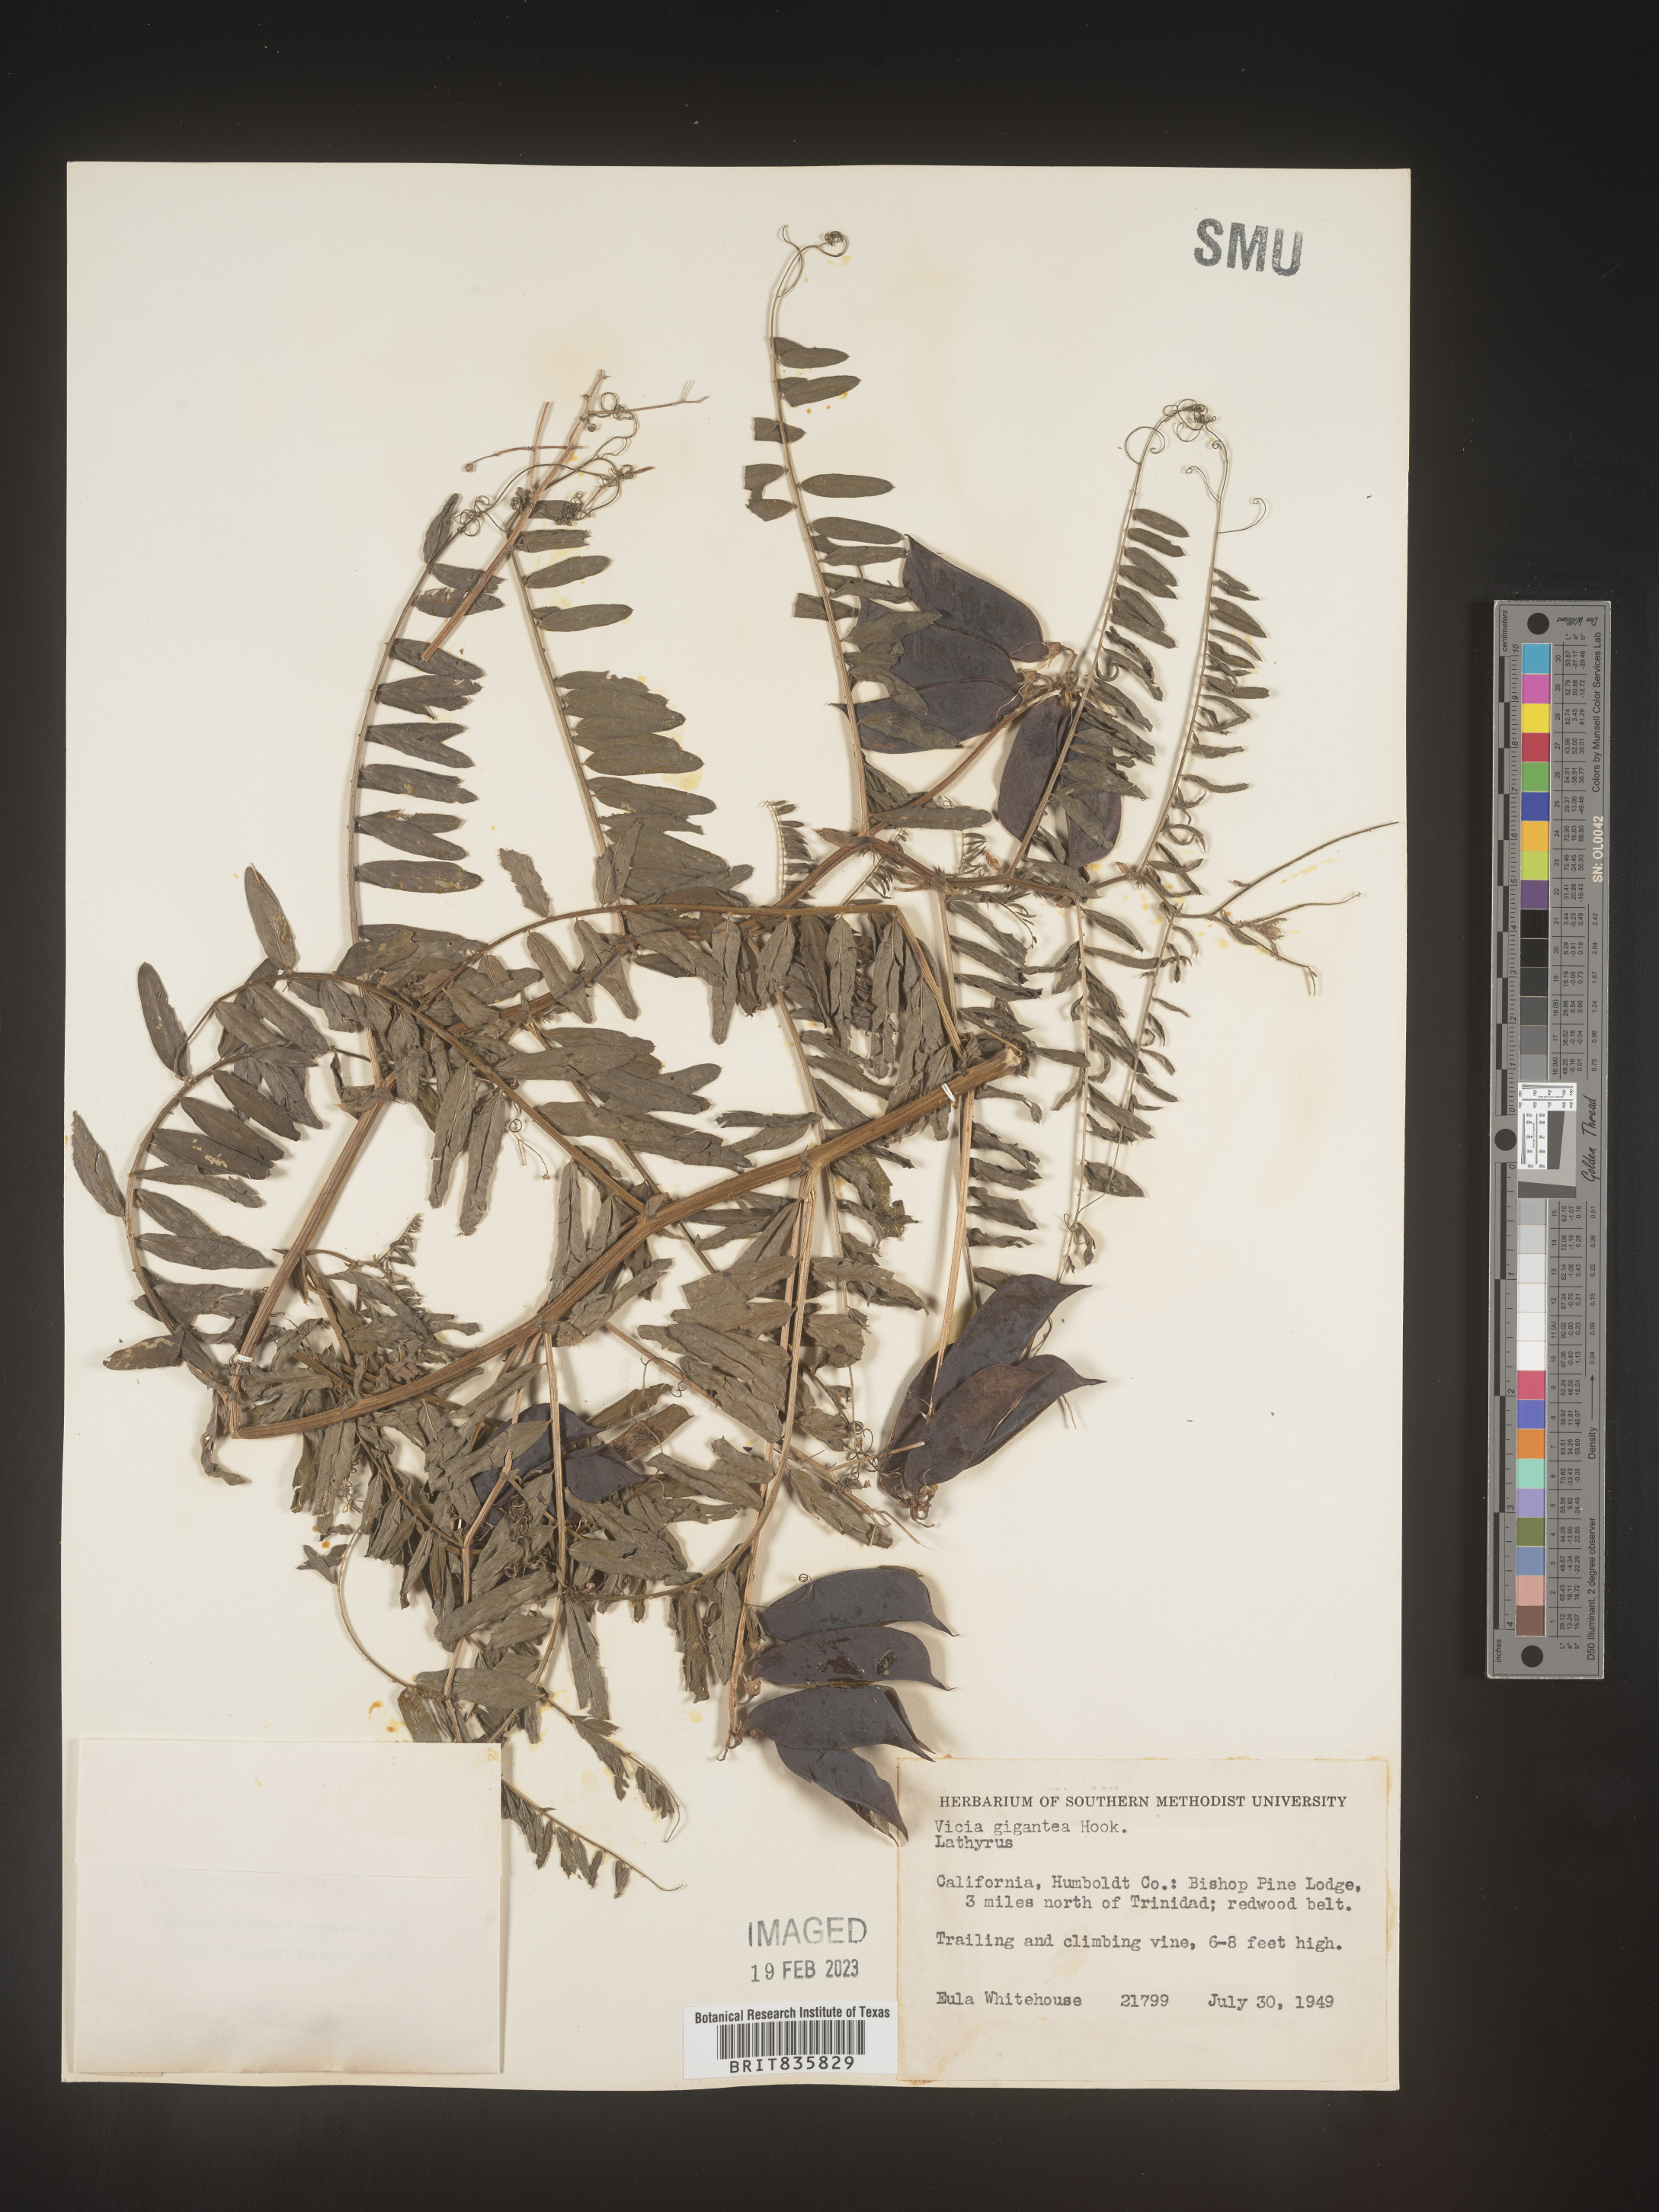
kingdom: Plantae
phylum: Tracheophyta
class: Magnoliopsida
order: Fabales
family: Fabaceae
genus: Vicia
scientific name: Vicia
